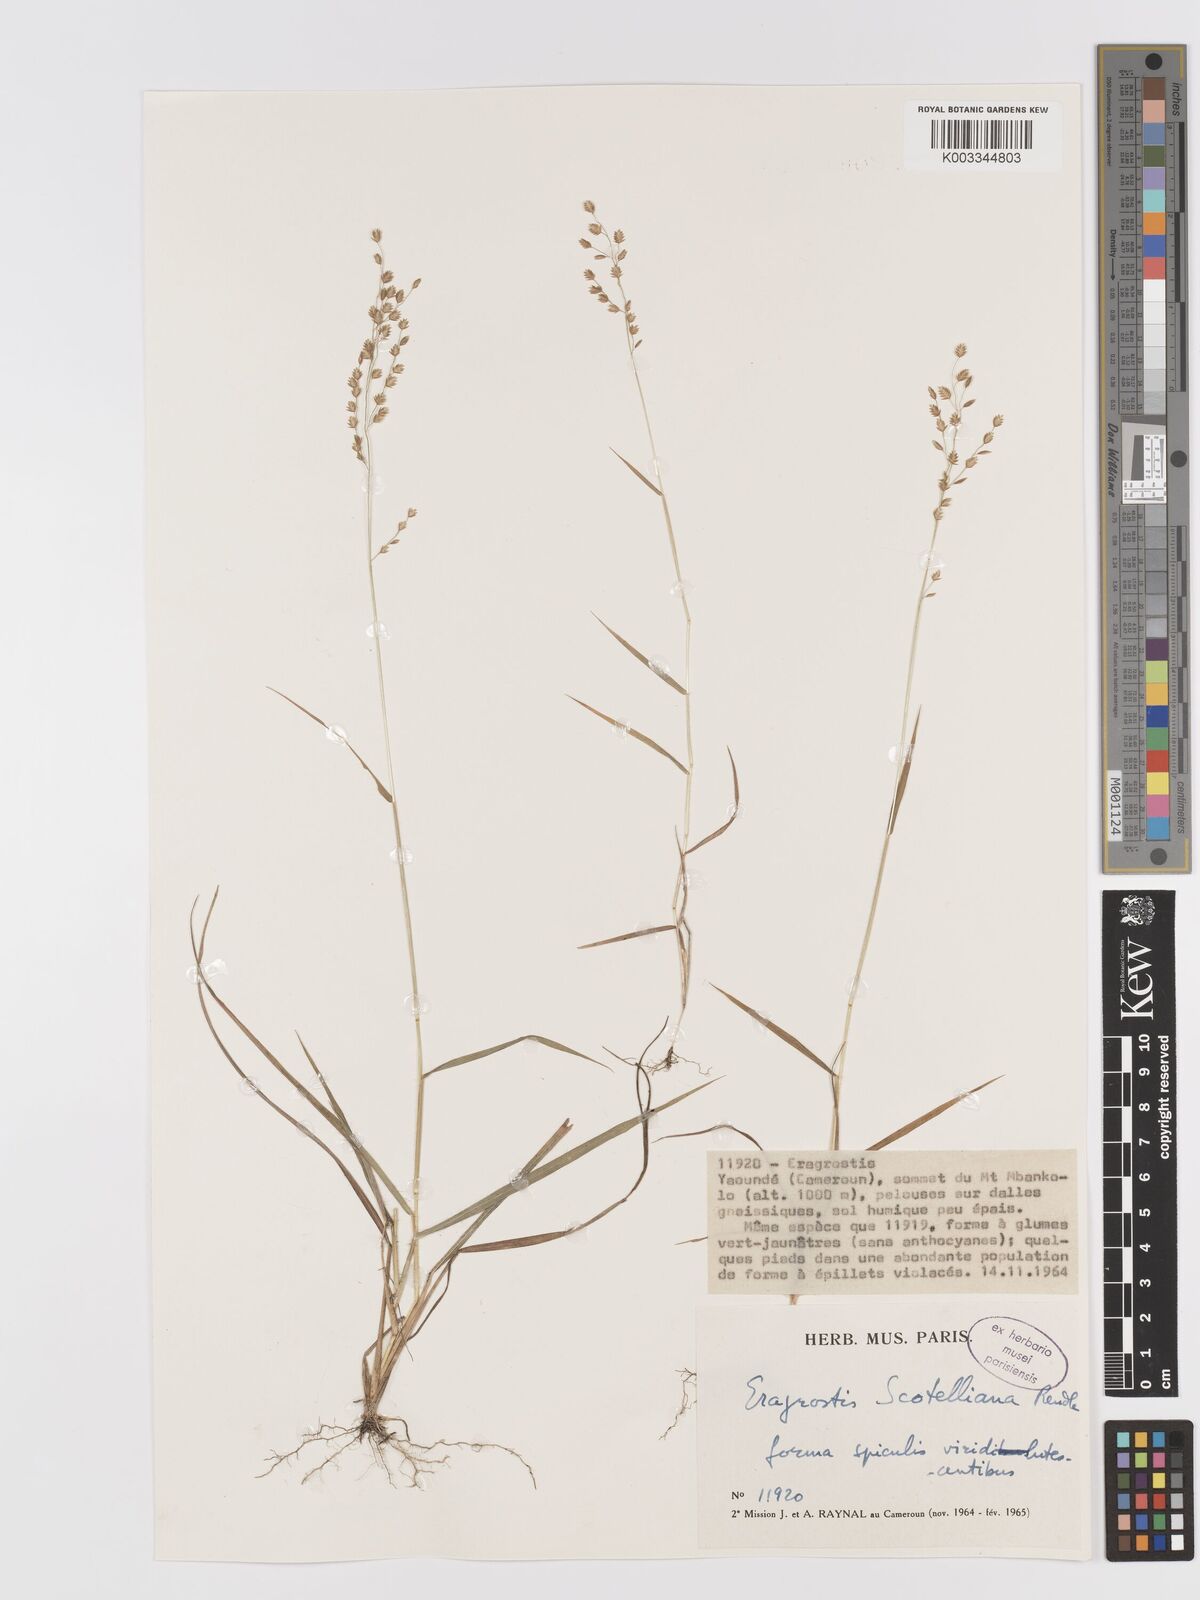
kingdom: Plantae
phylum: Tracheophyta
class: Liliopsida
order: Poales
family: Poaceae
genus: Eragrostis
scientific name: Eragrostis scotelliana
